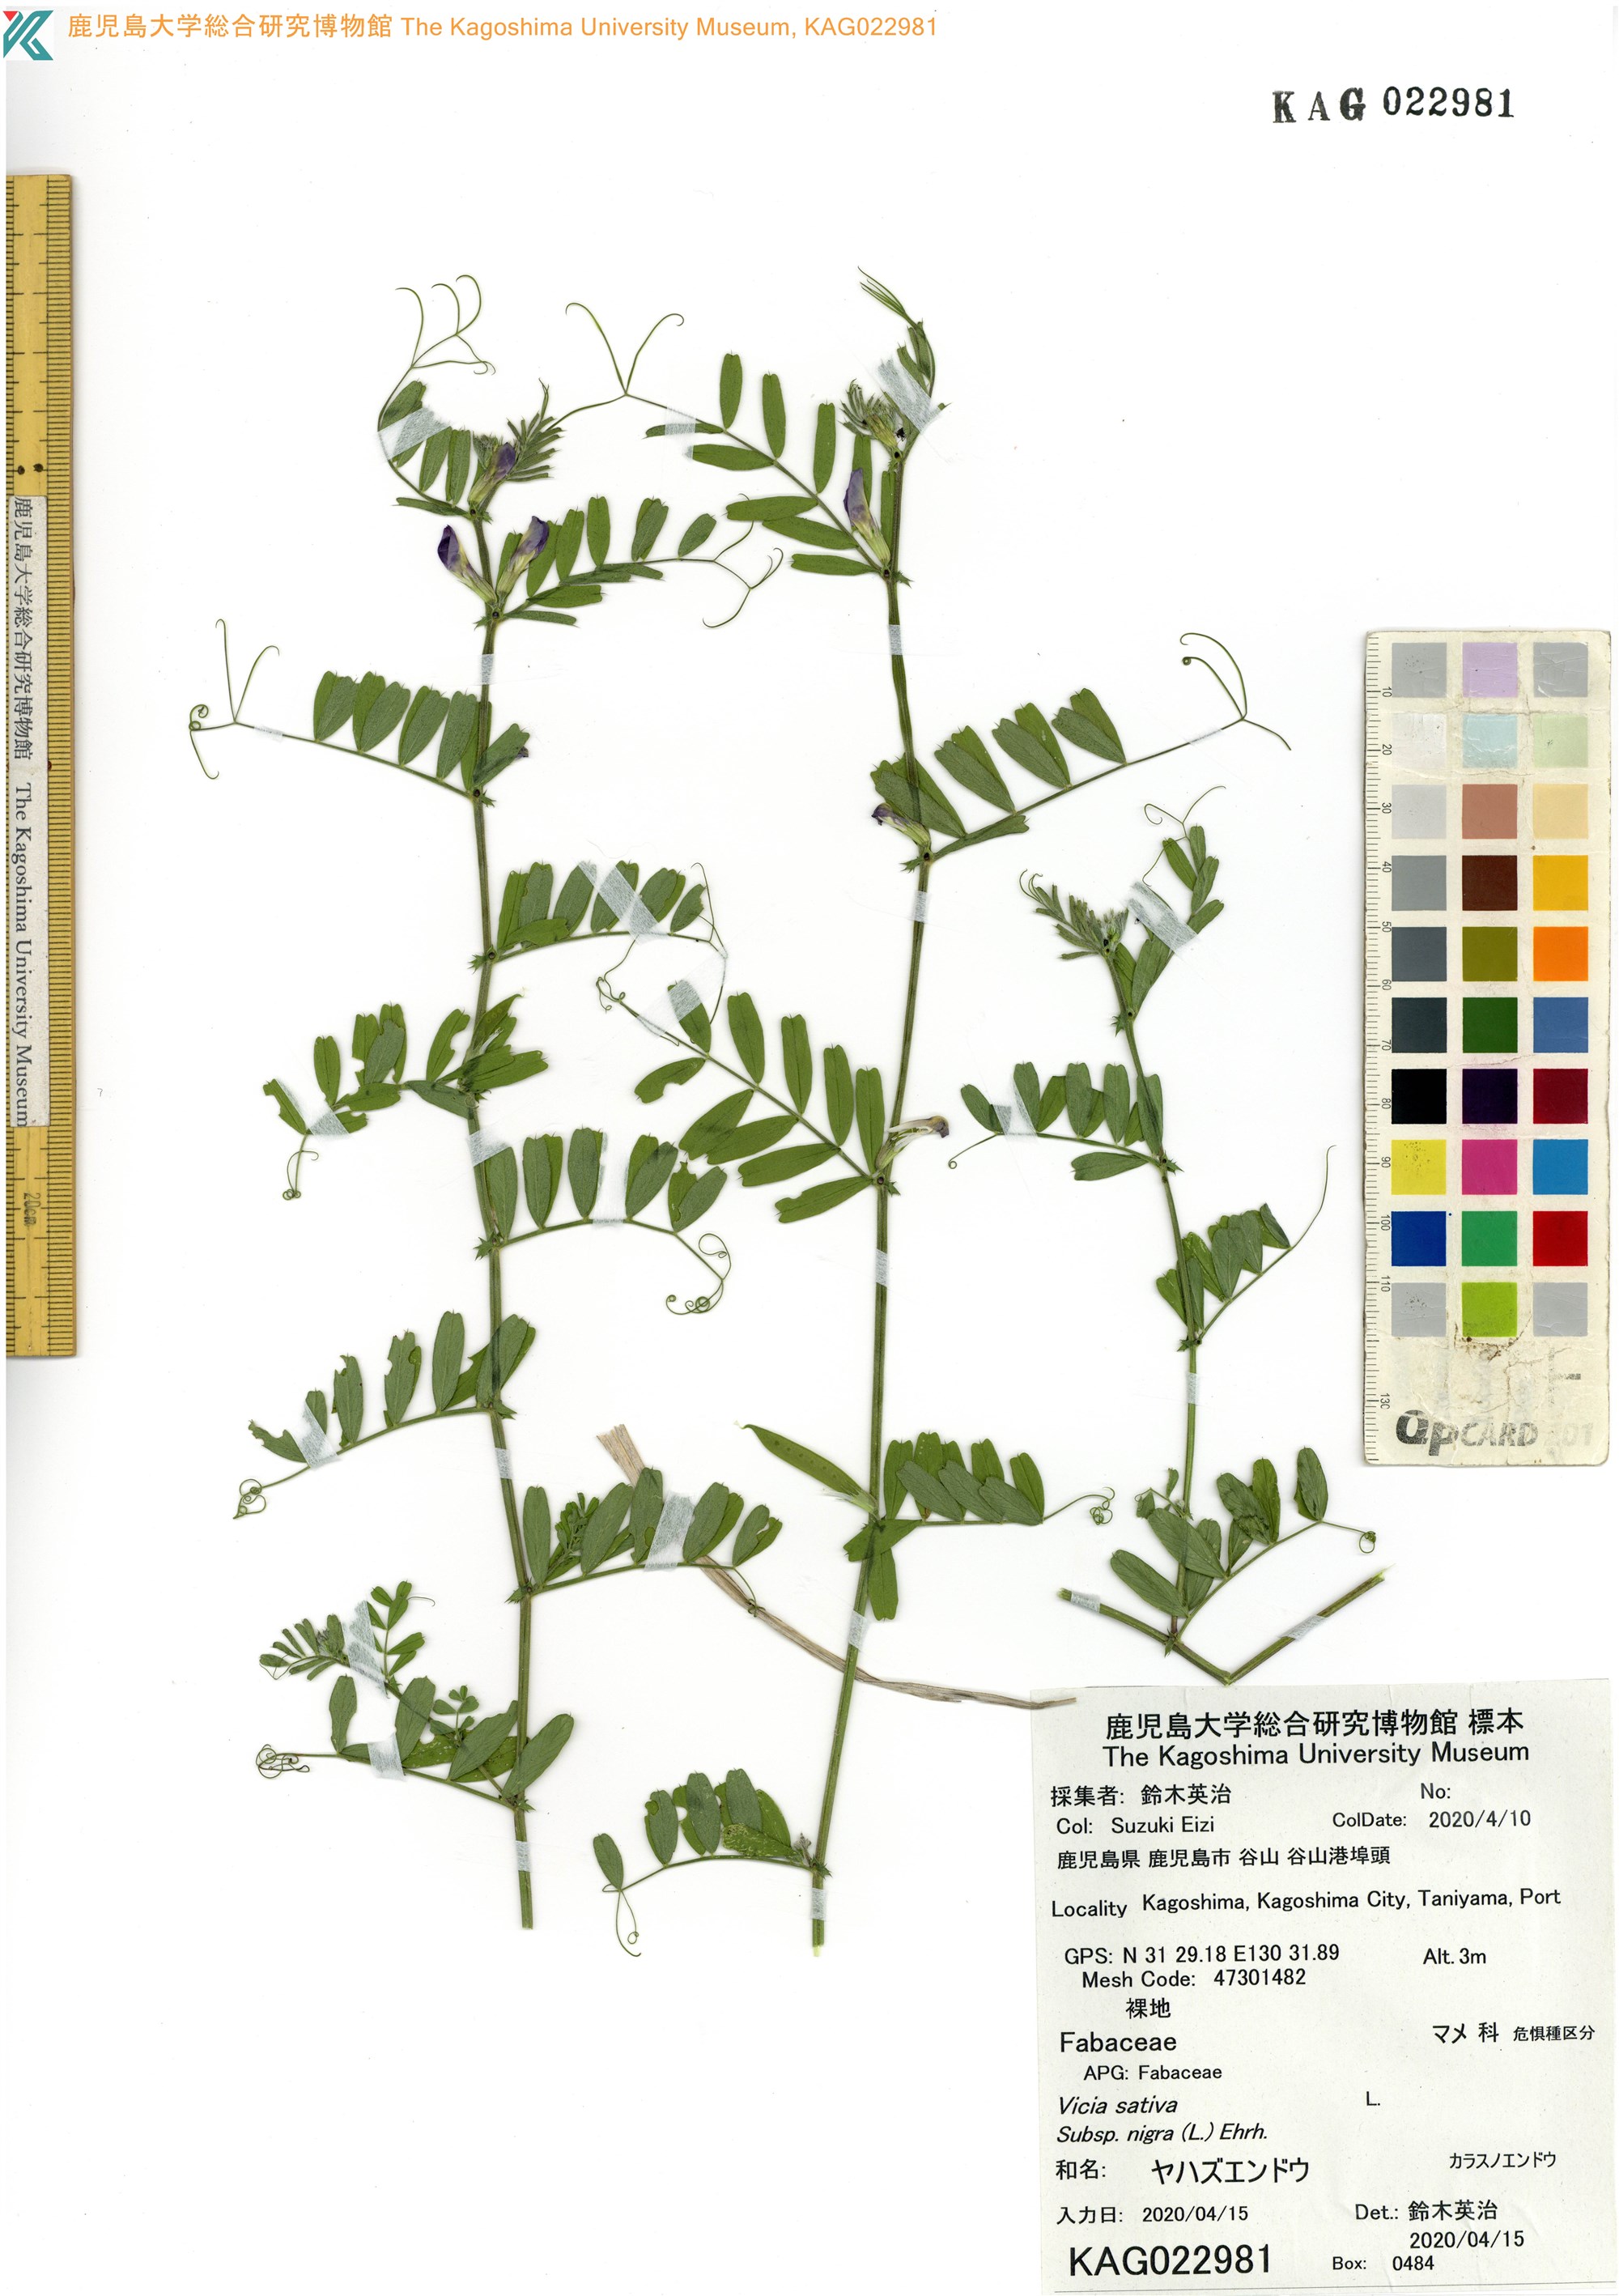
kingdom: Plantae
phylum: Tracheophyta
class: Magnoliopsida
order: Fabales
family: Fabaceae
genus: Vicia
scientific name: Vicia sativa
